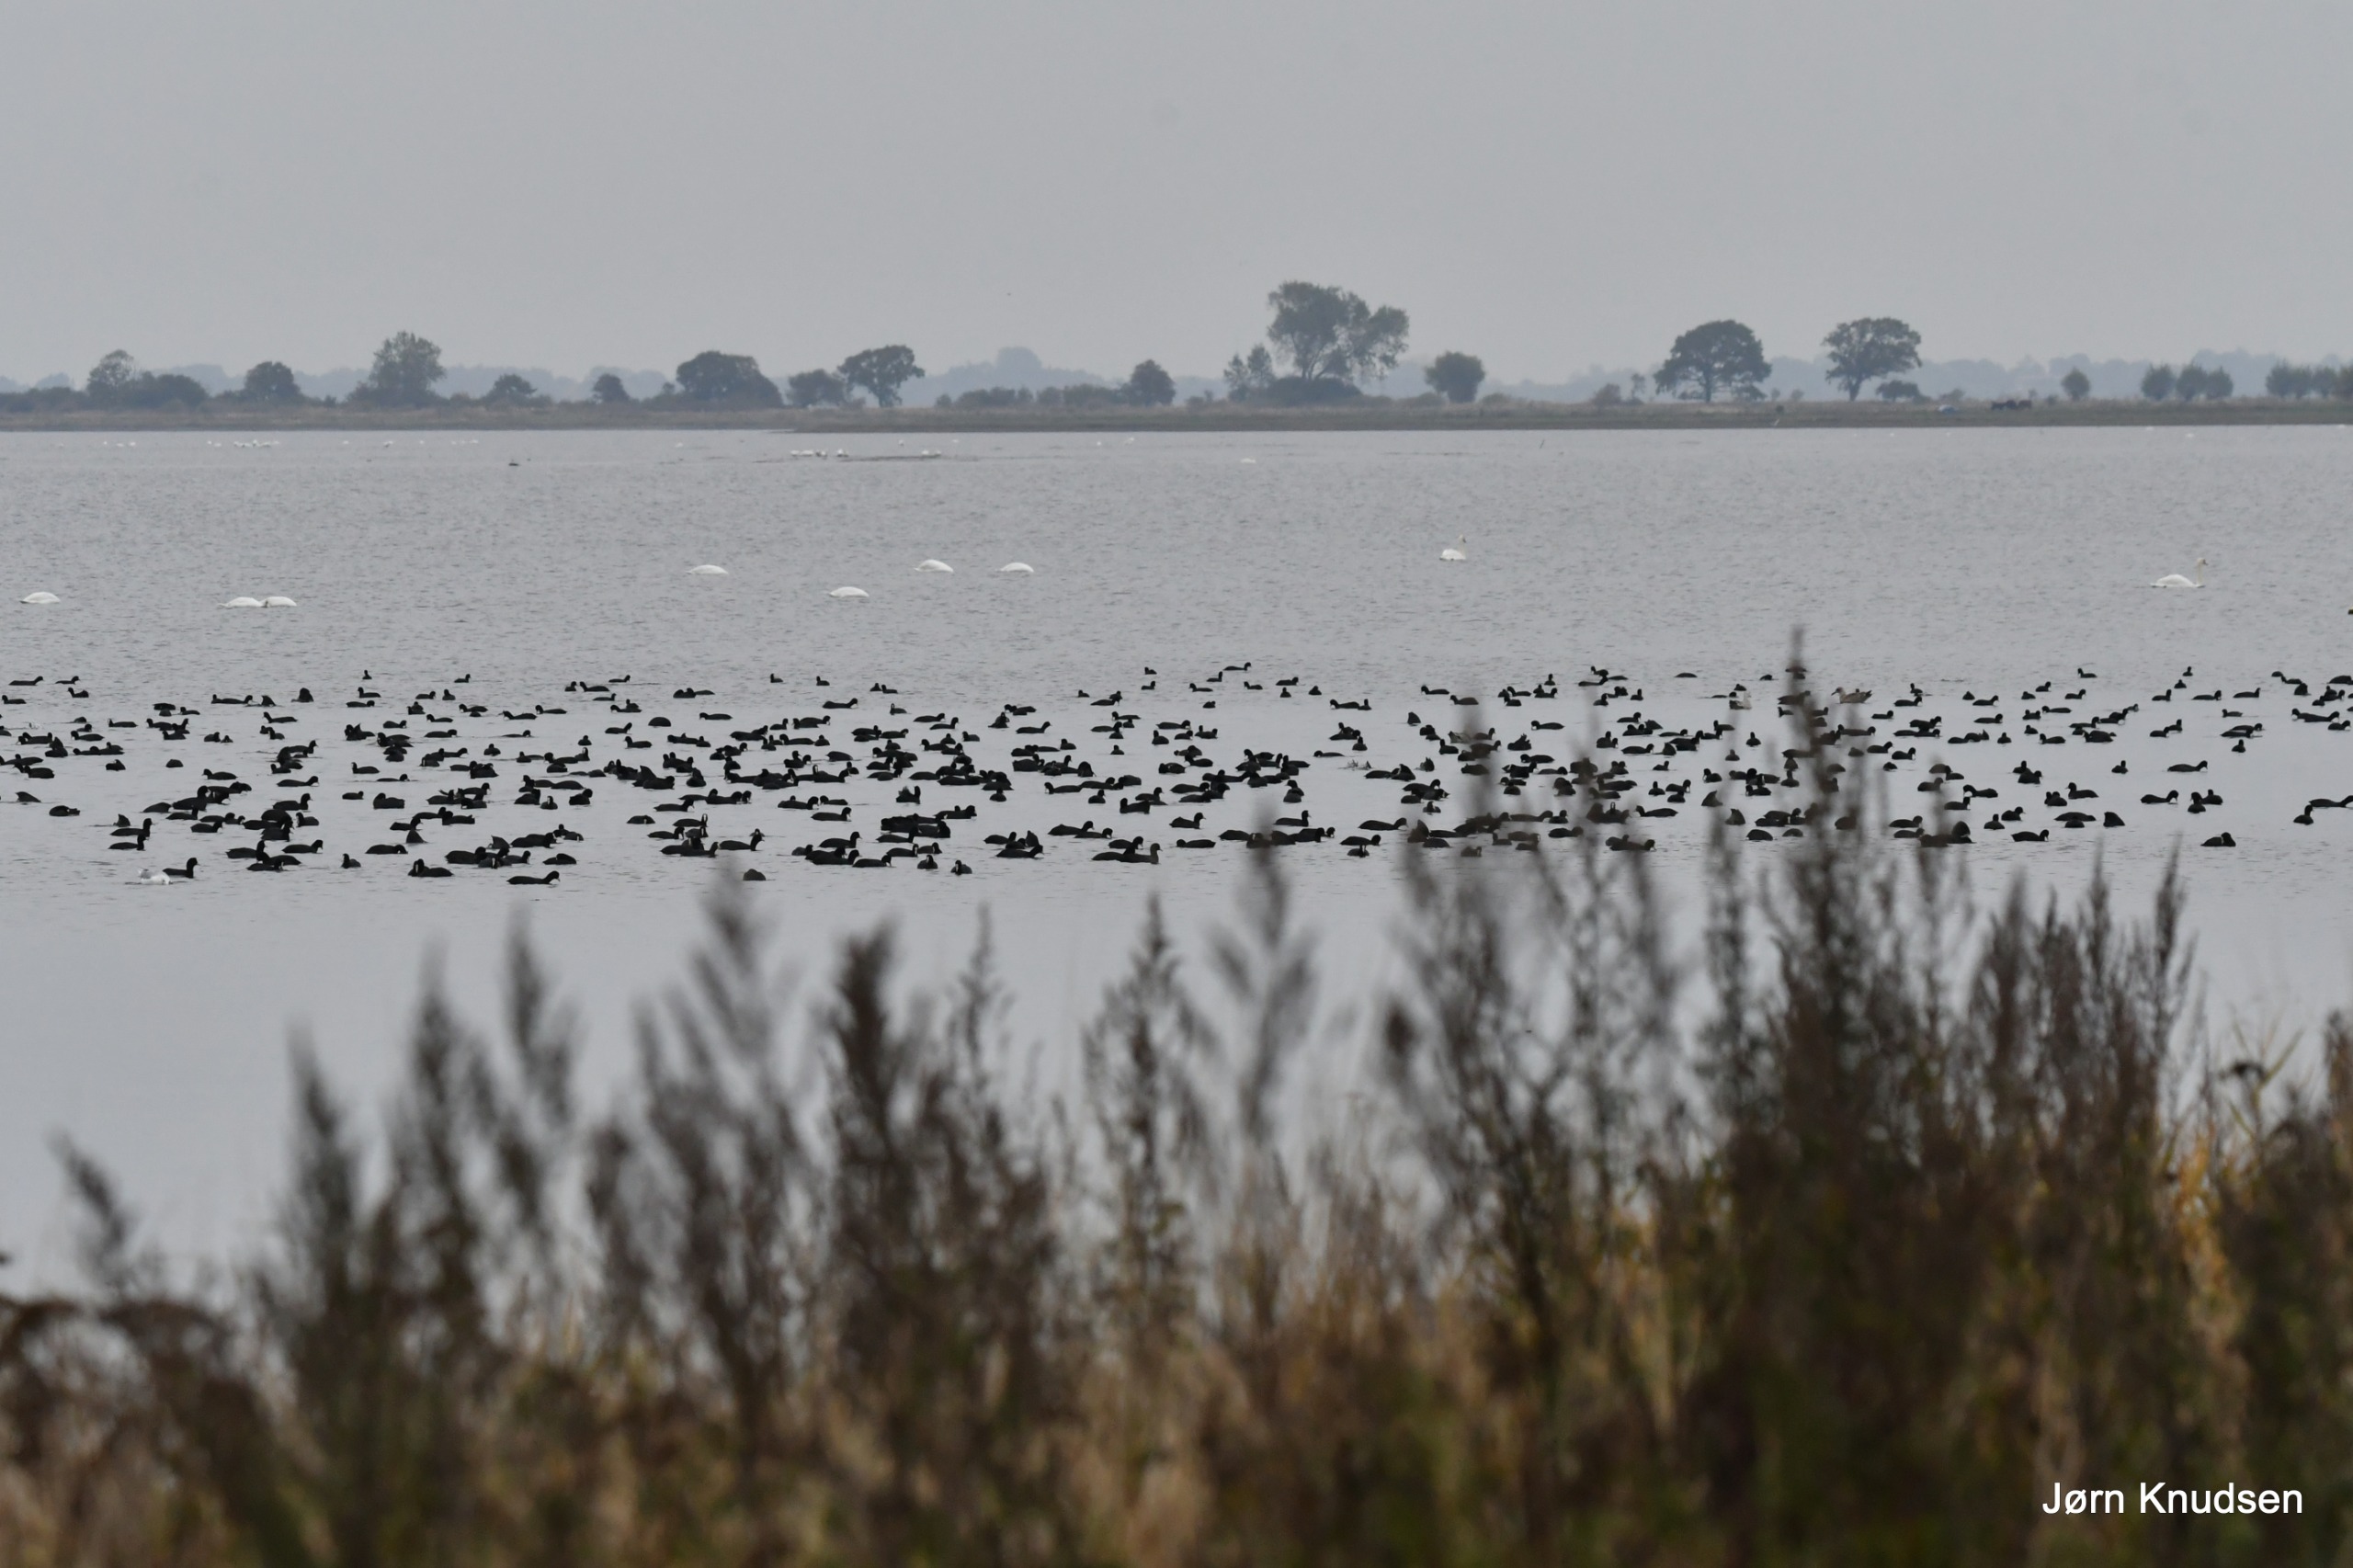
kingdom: Animalia
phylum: Chordata
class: Aves
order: Gruiformes
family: Rallidae
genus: Fulica
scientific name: Fulica atra
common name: Blishøne
